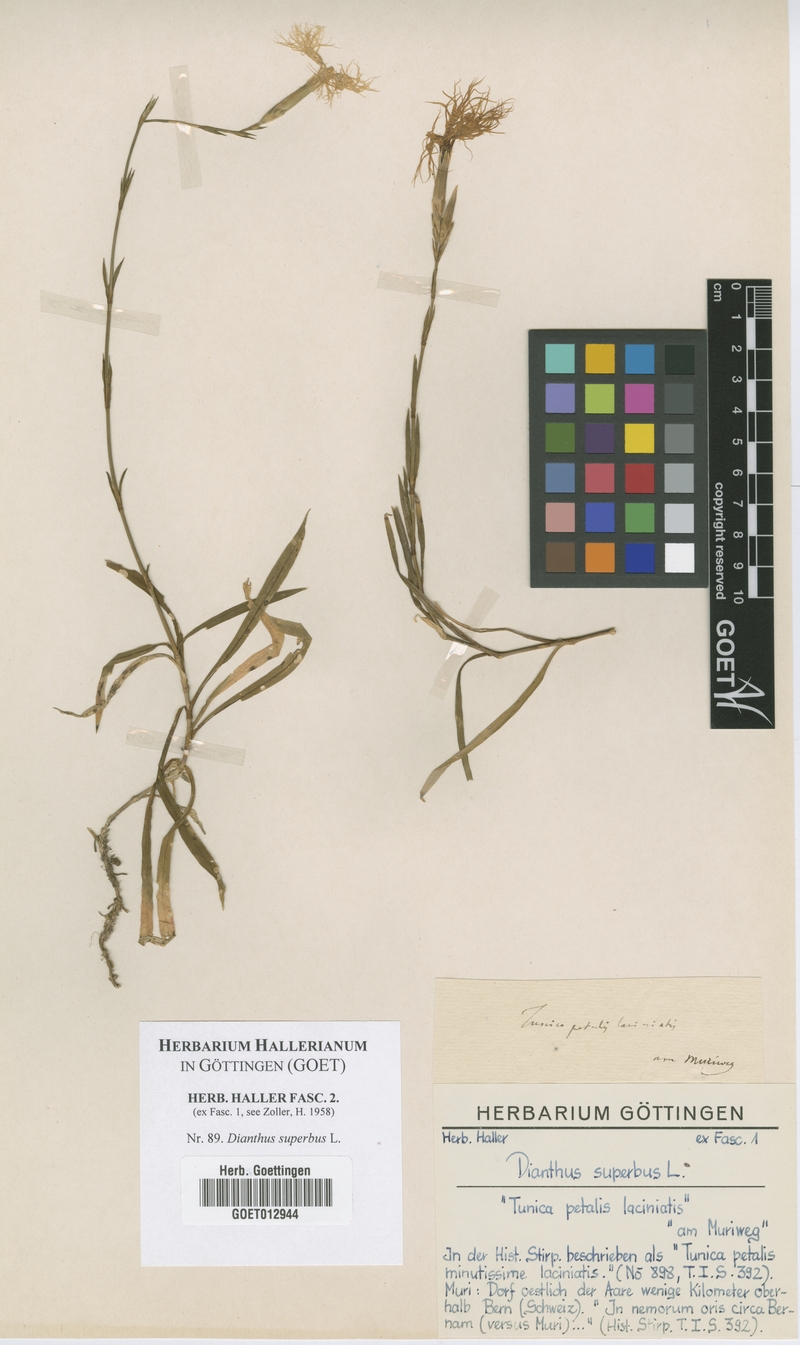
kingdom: Plantae
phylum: Tracheophyta
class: Magnoliopsida
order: Caryophyllales
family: Caryophyllaceae
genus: Dianthus
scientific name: Dianthus superbus
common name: Fringed pink
